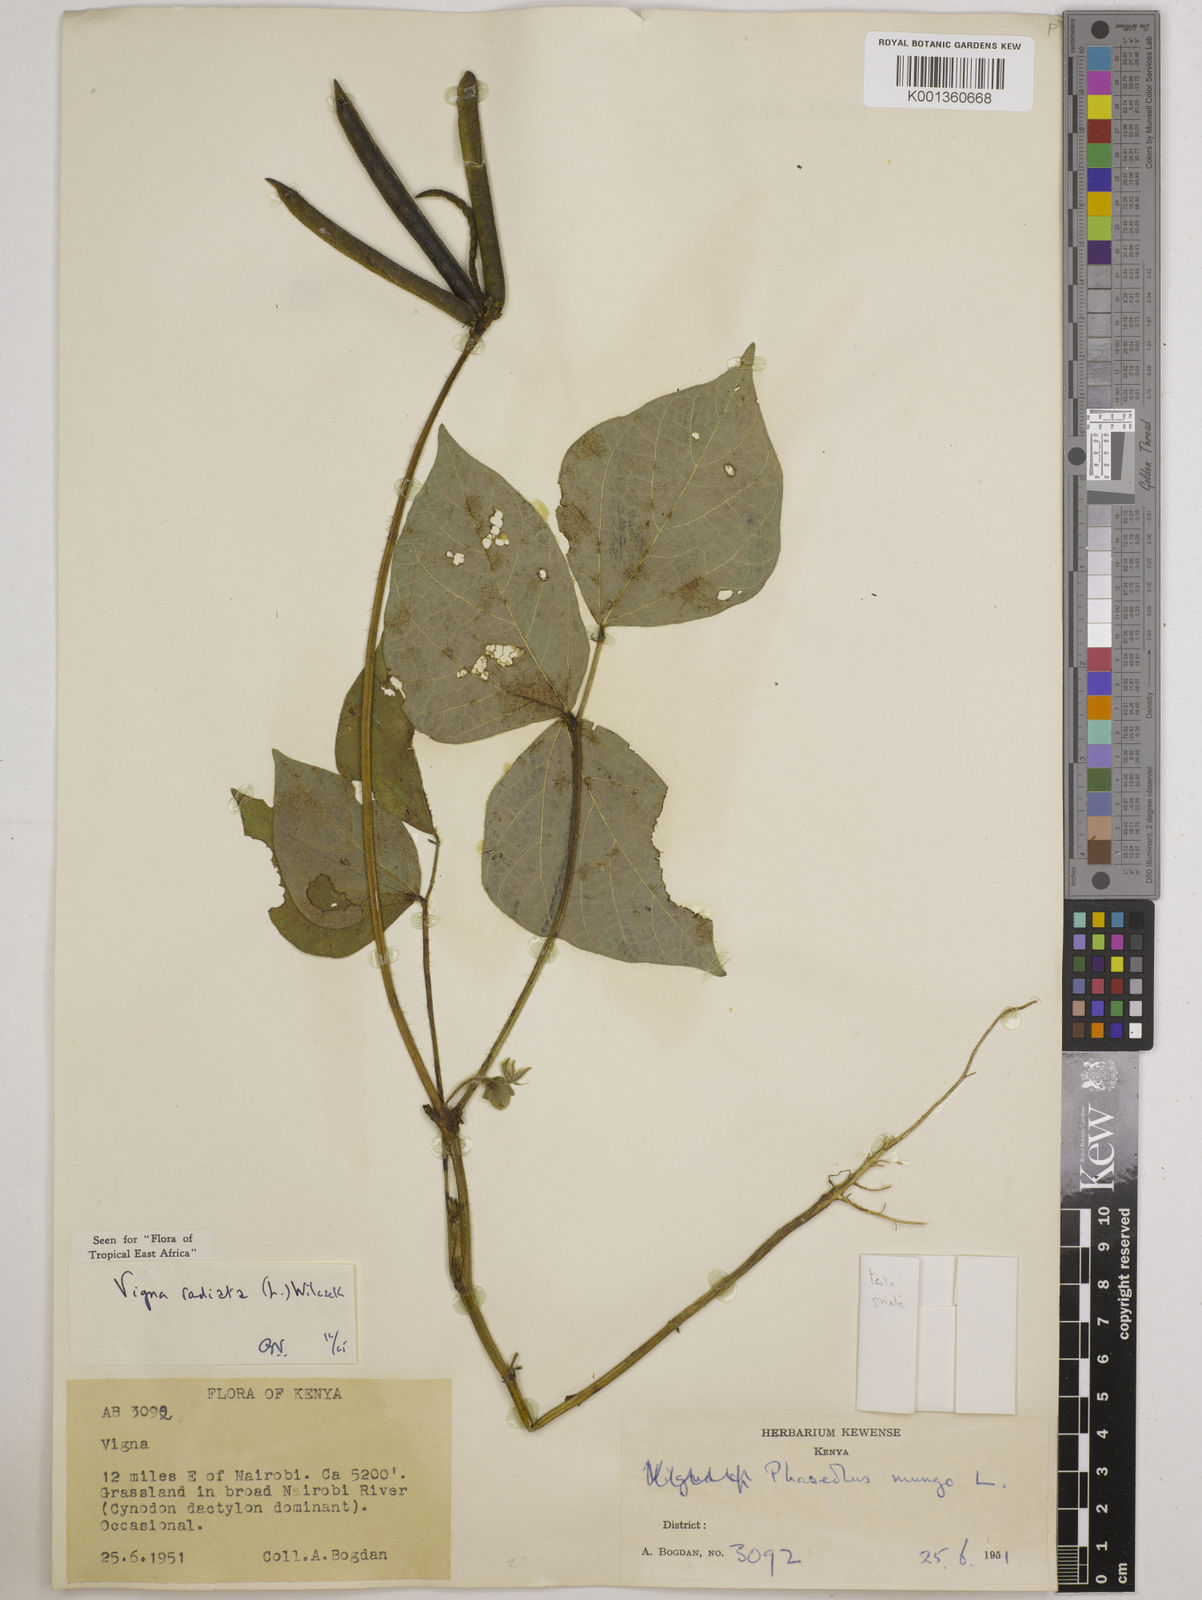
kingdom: Plantae
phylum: Tracheophyta
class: Magnoliopsida
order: Fabales
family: Fabaceae
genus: Vigna
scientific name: Vigna radiata
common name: Mung-bean
